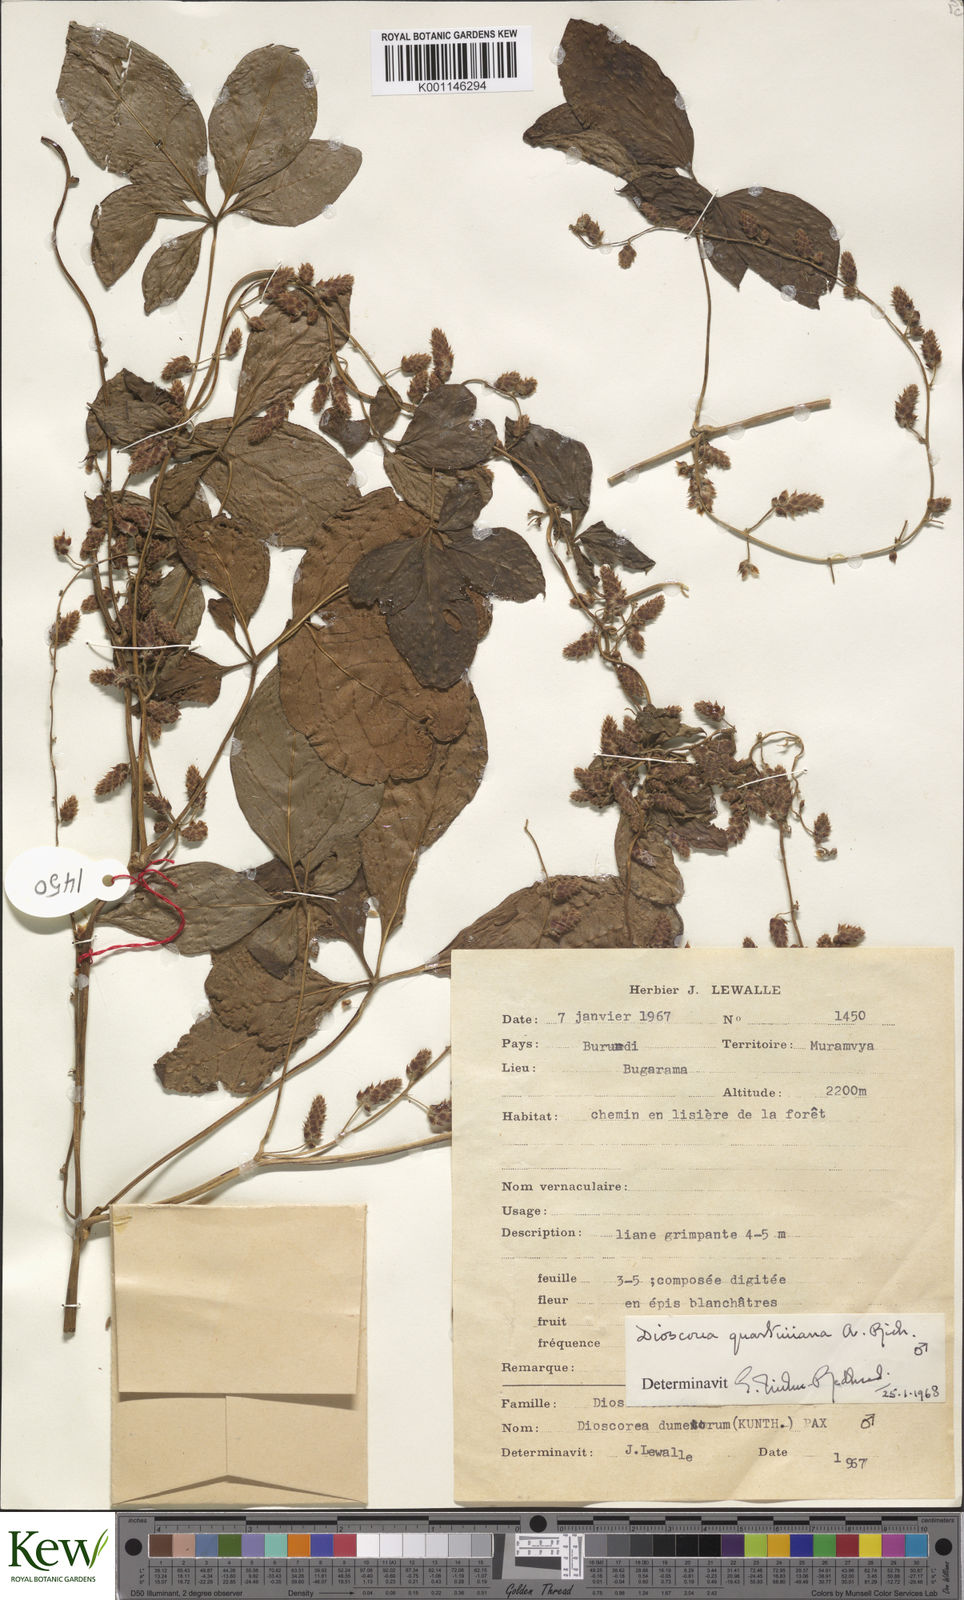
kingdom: Plantae
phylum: Tracheophyta
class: Liliopsida
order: Dioscoreales
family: Dioscoreaceae
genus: Dioscorea
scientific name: Dioscorea quartiniana
